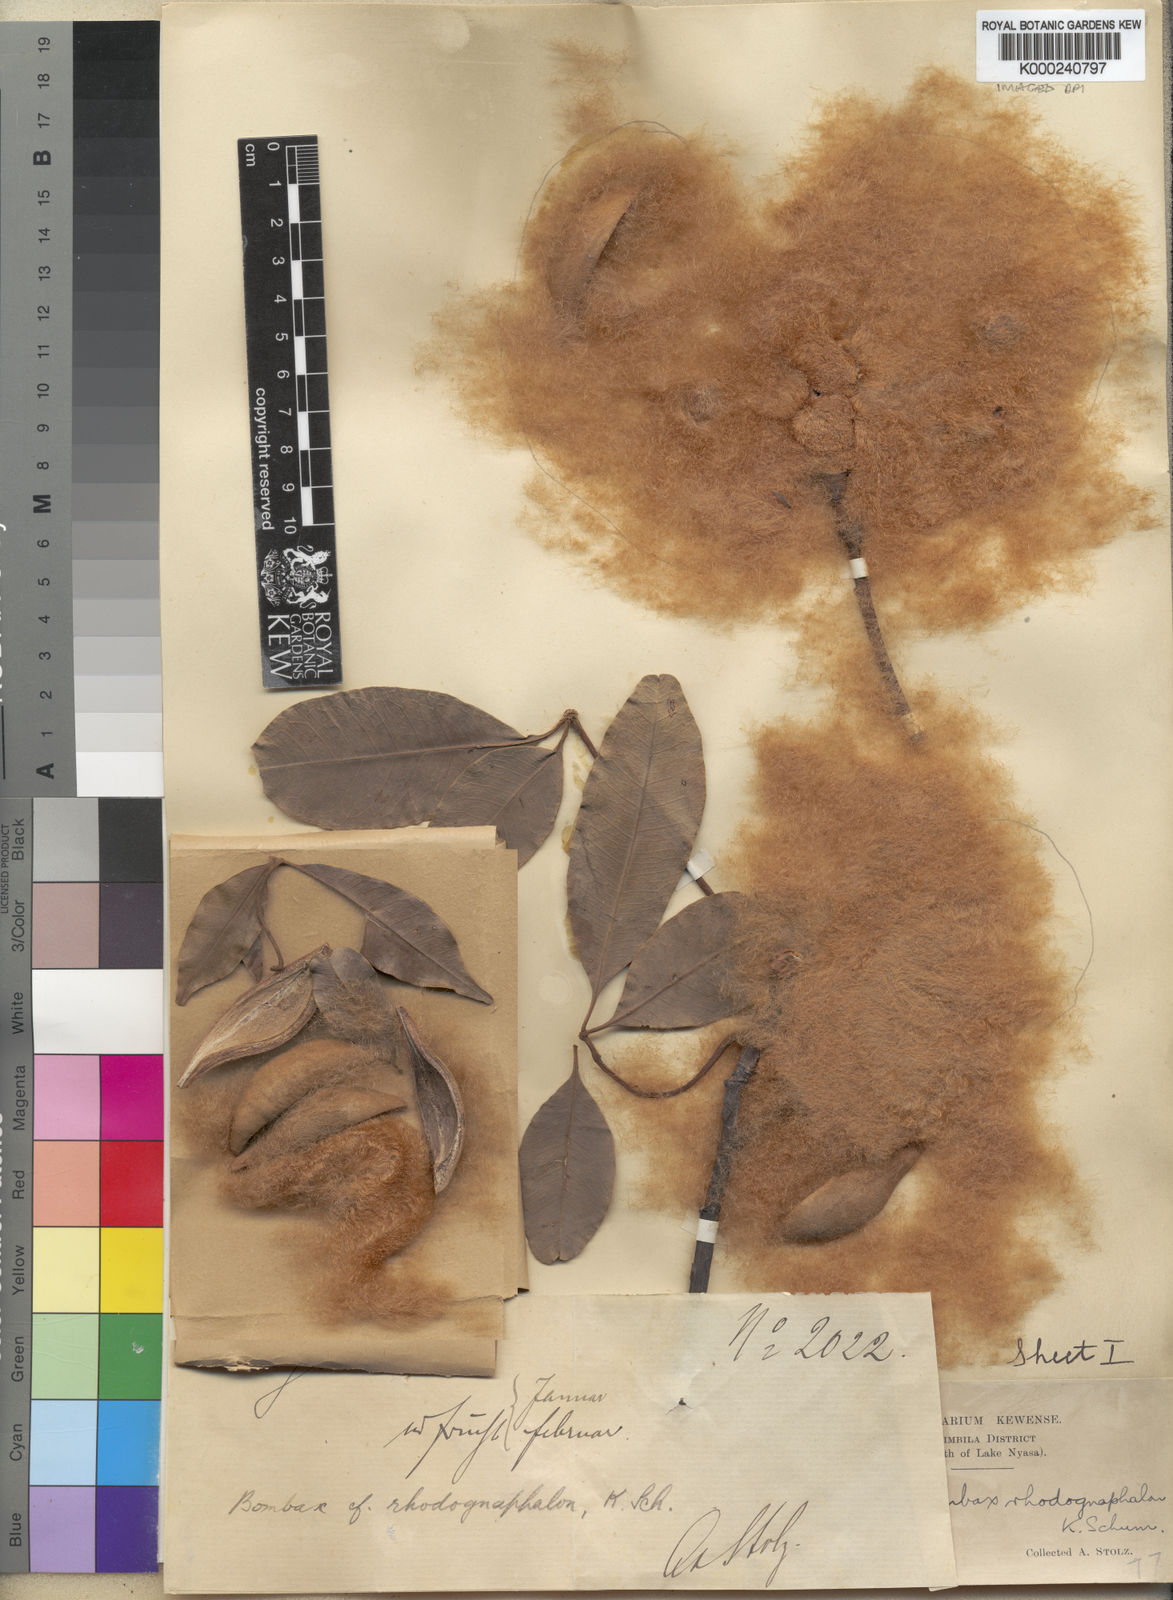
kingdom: Plantae
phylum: Tracheophyta
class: Magnoliopsida
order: Malvales
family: Malvaceae
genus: Rhodognaphalon
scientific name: Rhodognaphalon stolzii
